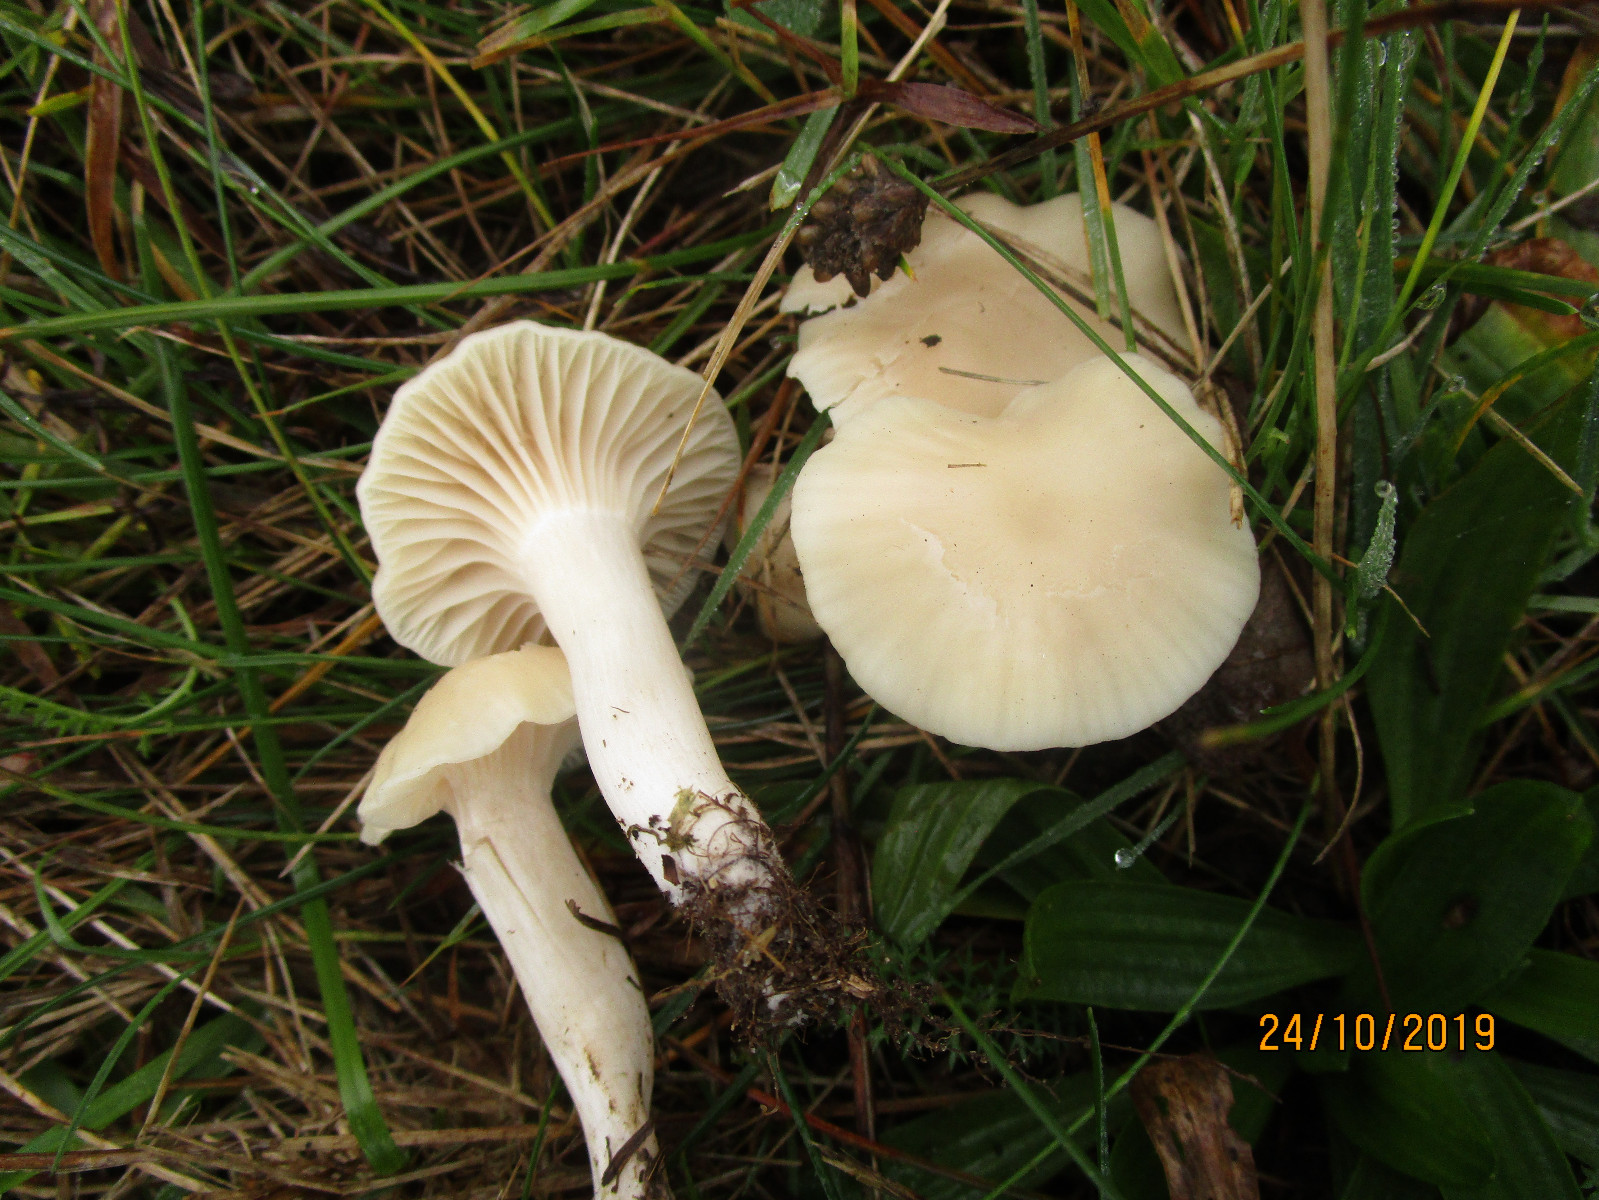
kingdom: Fungi
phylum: Basidiomycota
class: Agaricomycetes
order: Agaricales
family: Hygrophoraceae
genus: Cuphophyllus
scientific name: Cuphophyllus virgineus
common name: snehvid vokshat
